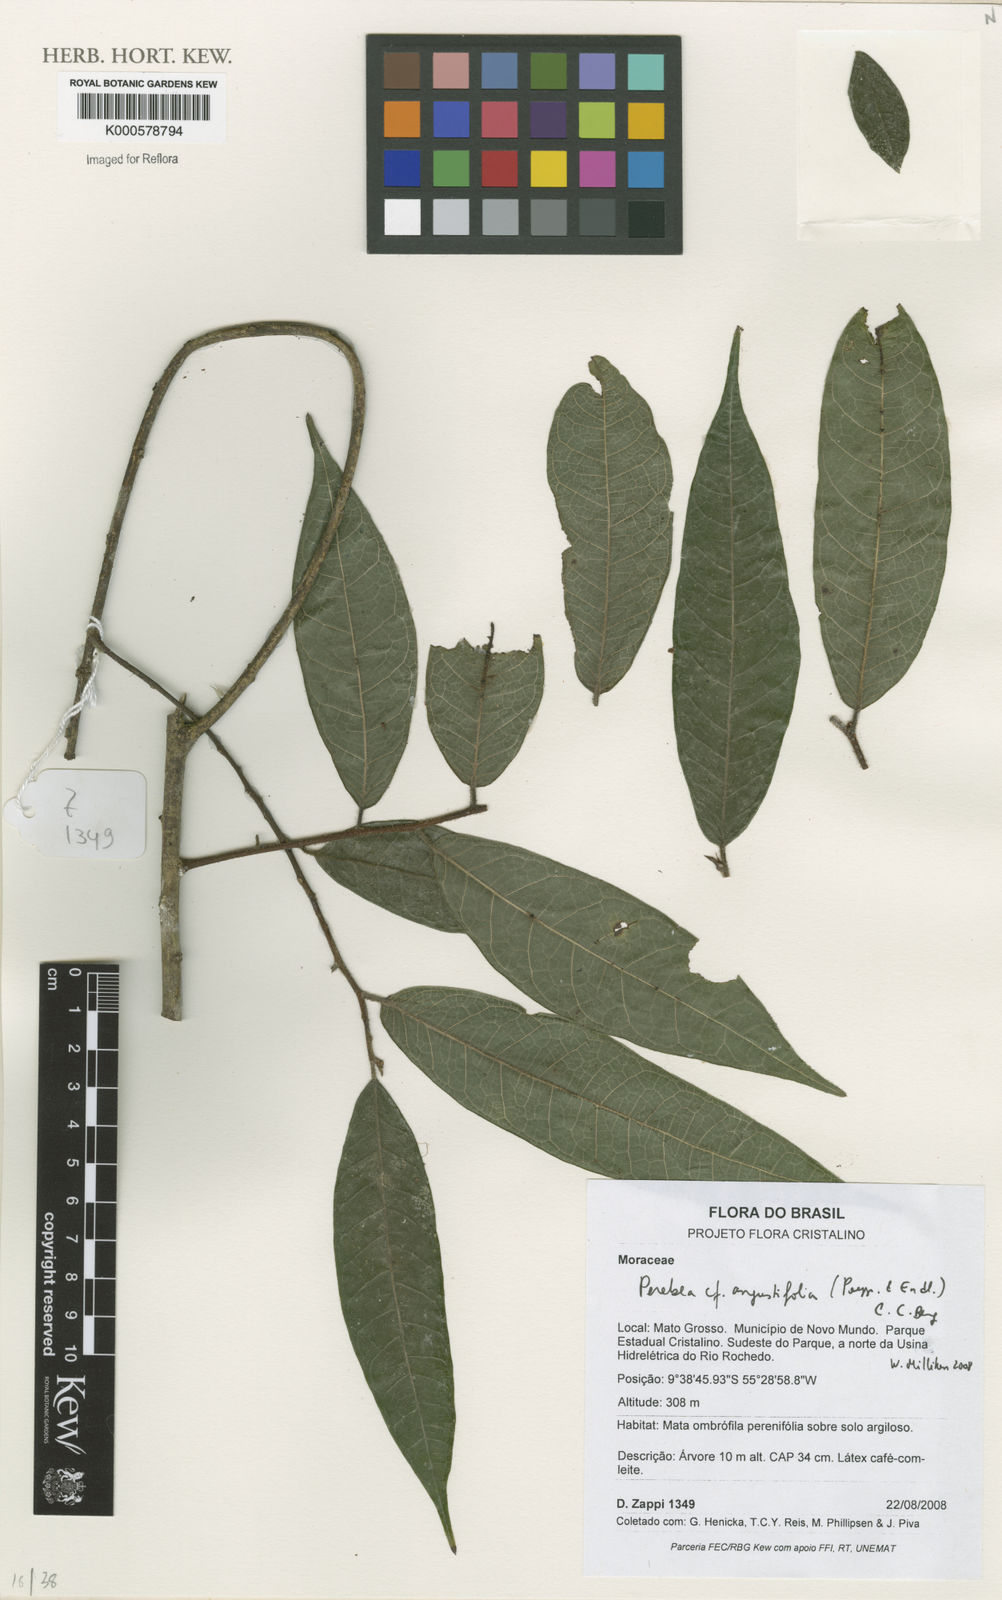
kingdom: Plantae
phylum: Tracheophyta
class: Magnoliopsida
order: Rosales
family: Moraceae
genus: Perebea
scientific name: Perebea angustifolia
